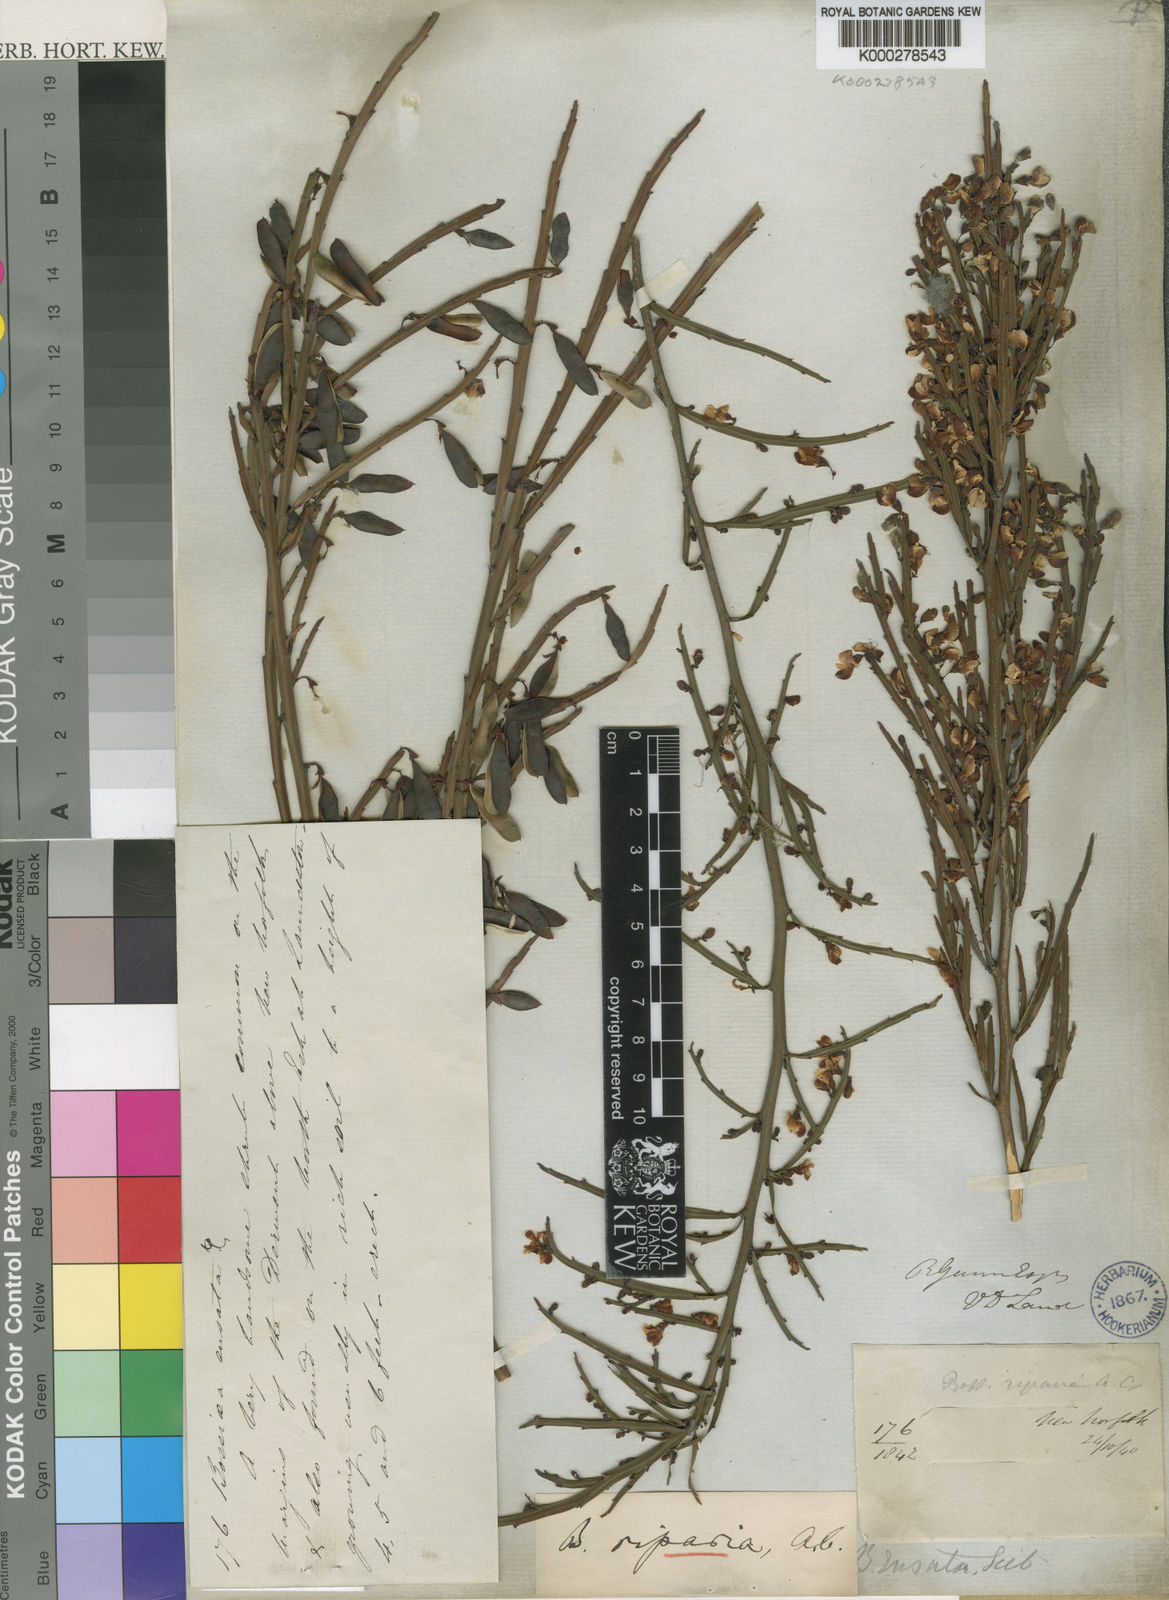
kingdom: Plantae
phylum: Tracheophyta
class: Magnoliopsida
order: Fabales
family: Fabaceae
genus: Bossiaea
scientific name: Bossiaea riparia
